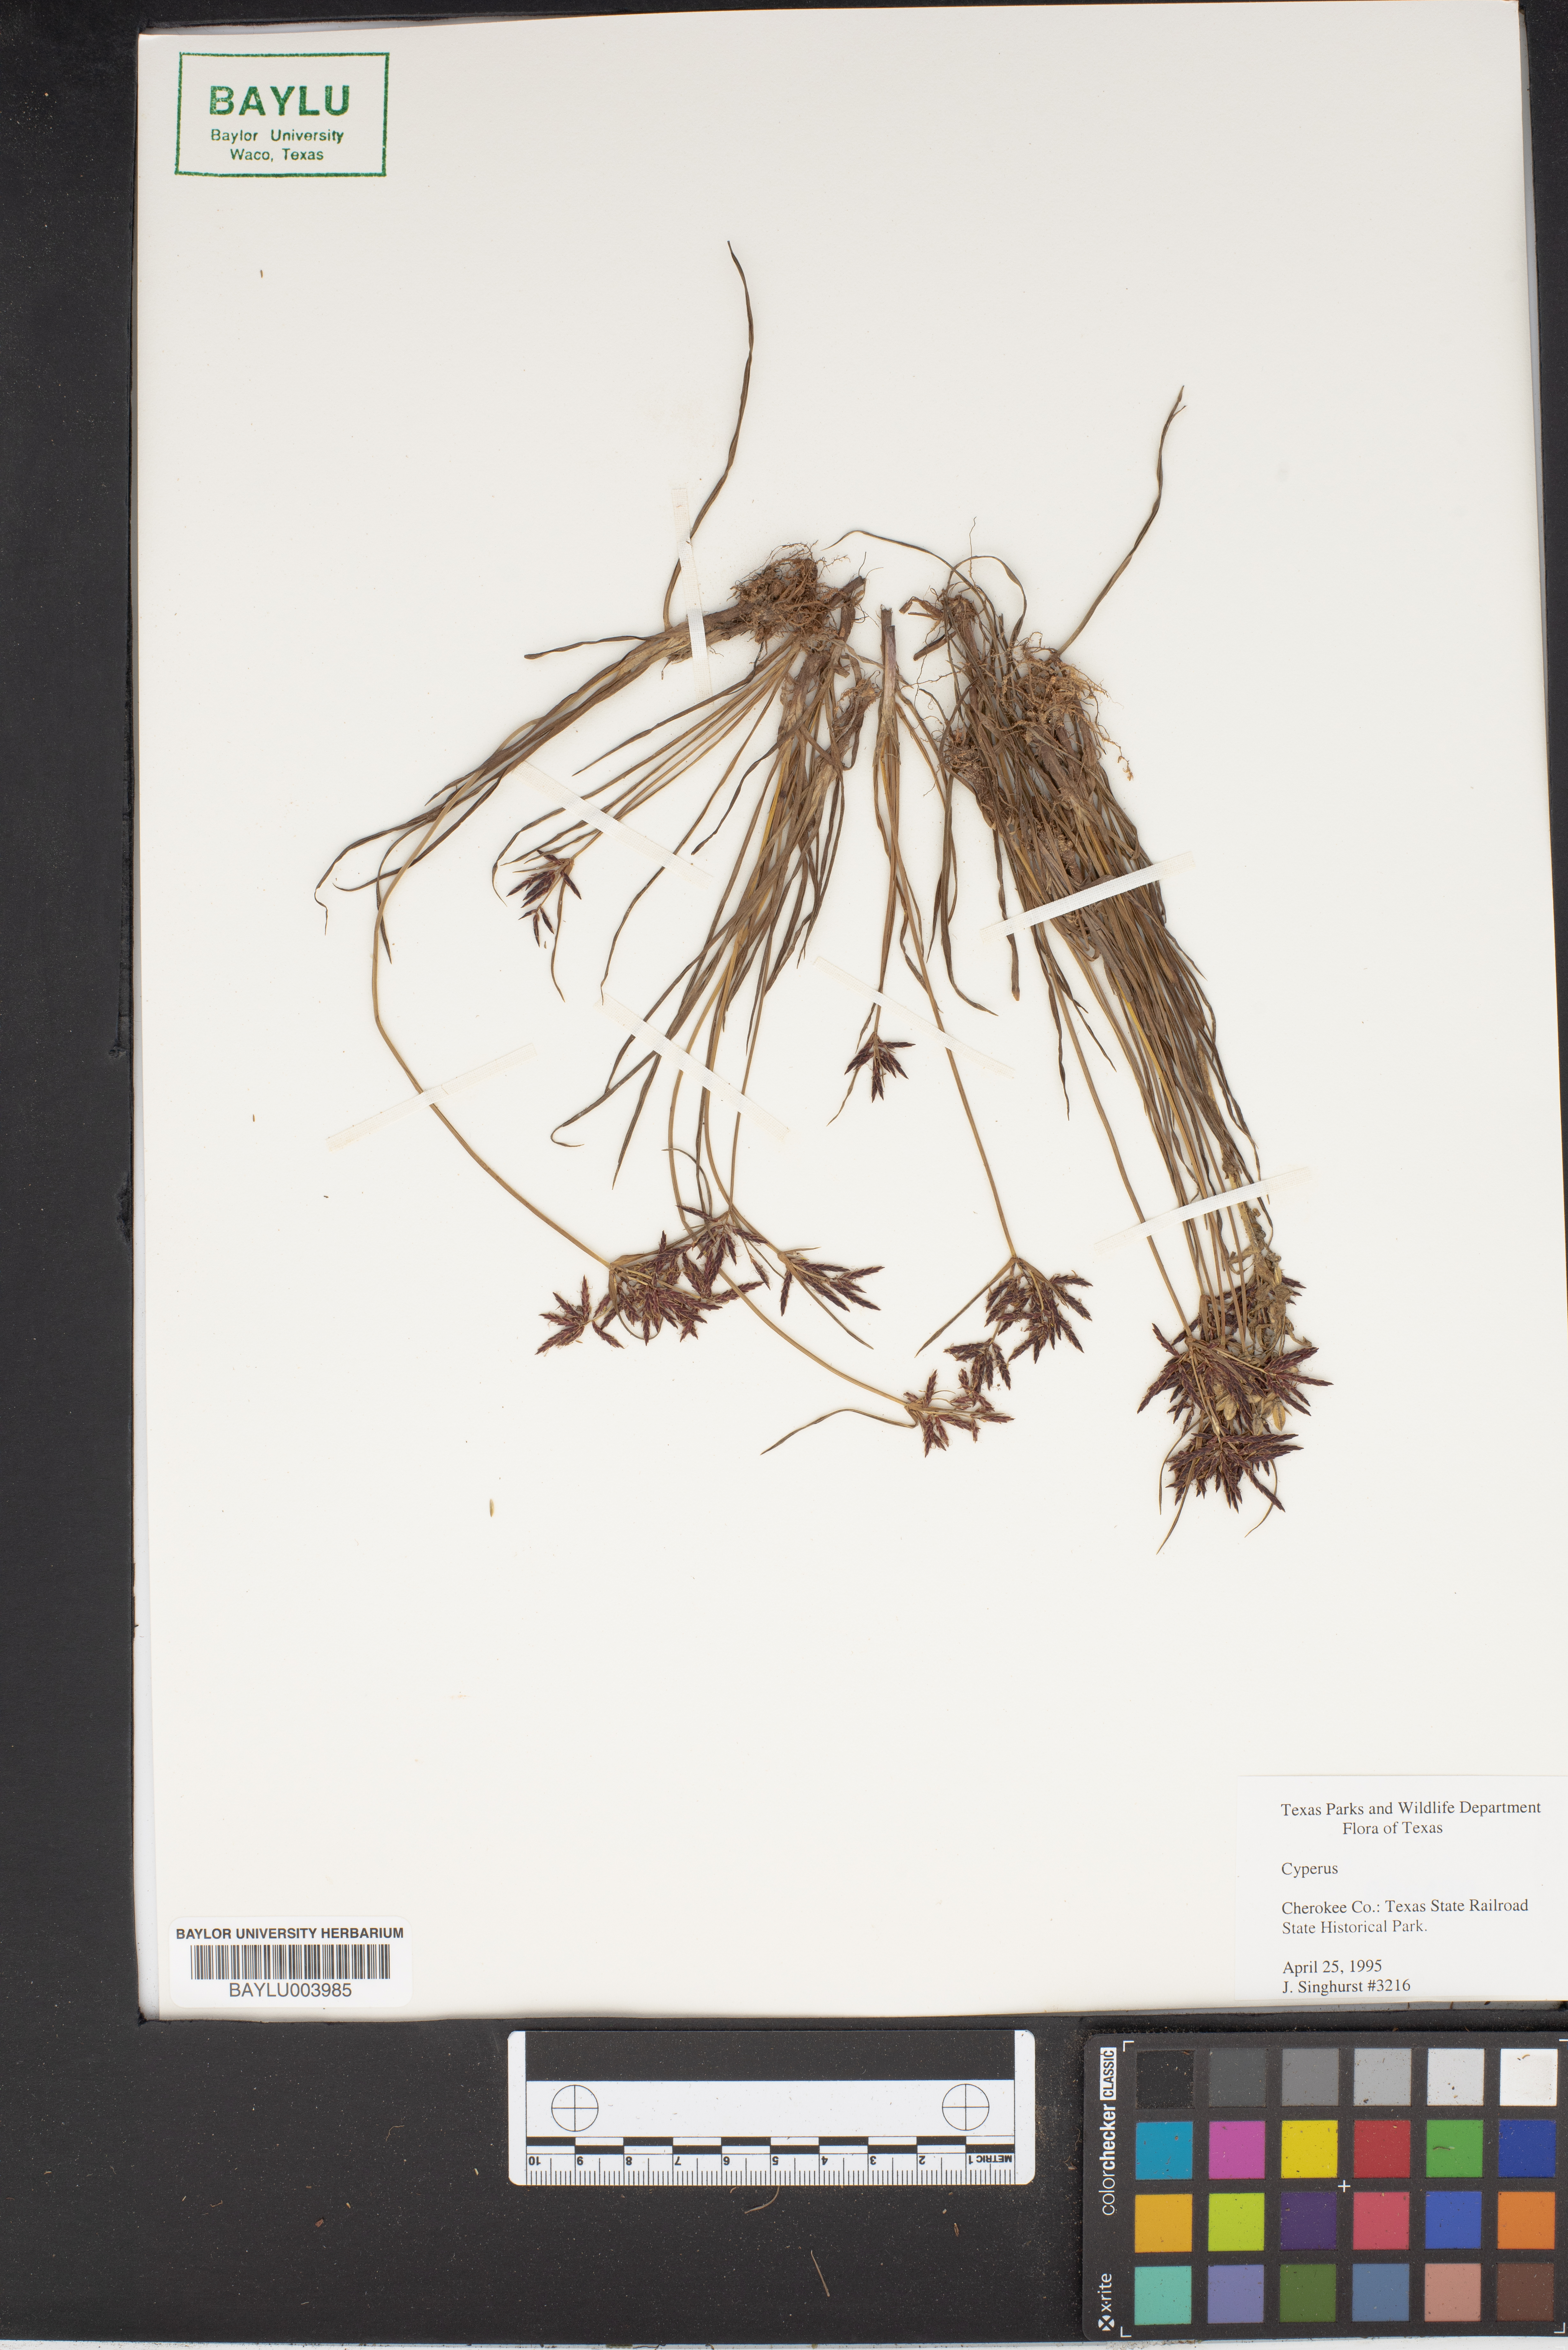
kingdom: Plantae
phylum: Tracheophyta
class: Liliopsida
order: Poales
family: Cyperaceae
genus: Cyperus
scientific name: Cyperus
